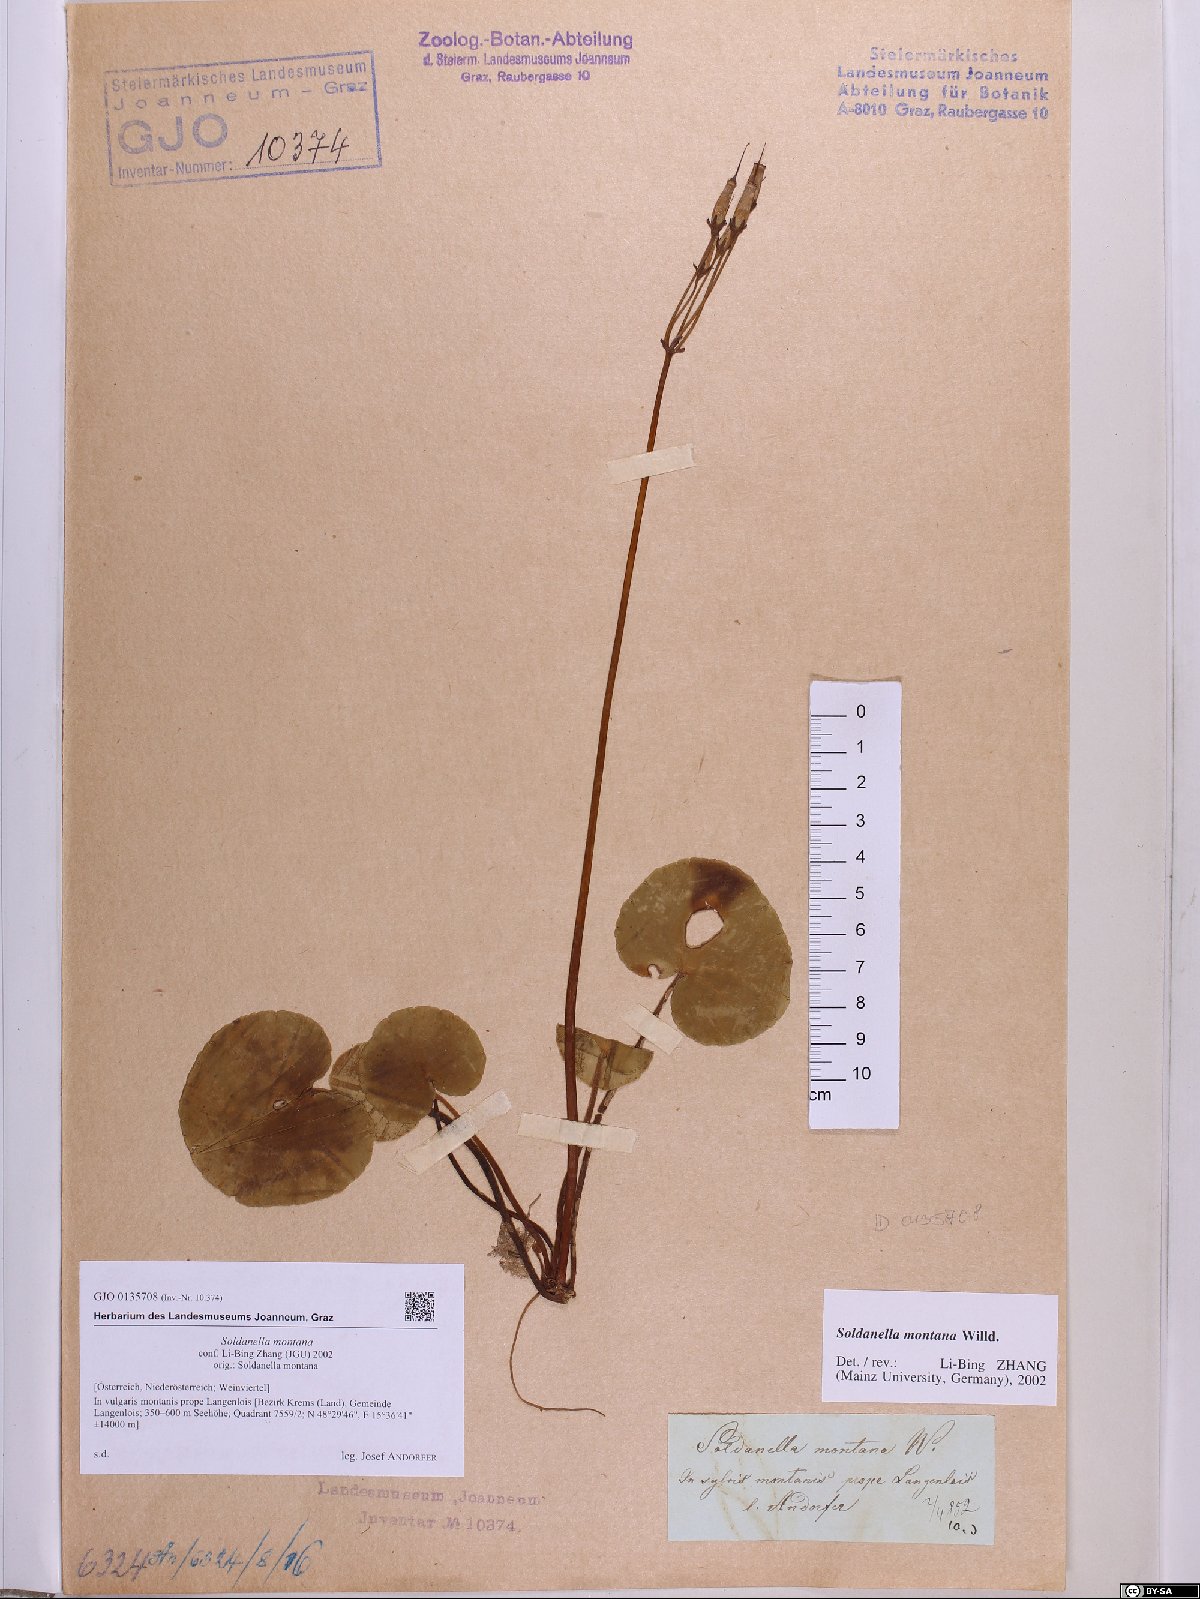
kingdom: Plantae
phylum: Tracheophyta
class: Magnoliopsida
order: Ericales
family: Primulaceae
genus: Soldanella
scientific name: Soldanella montana
